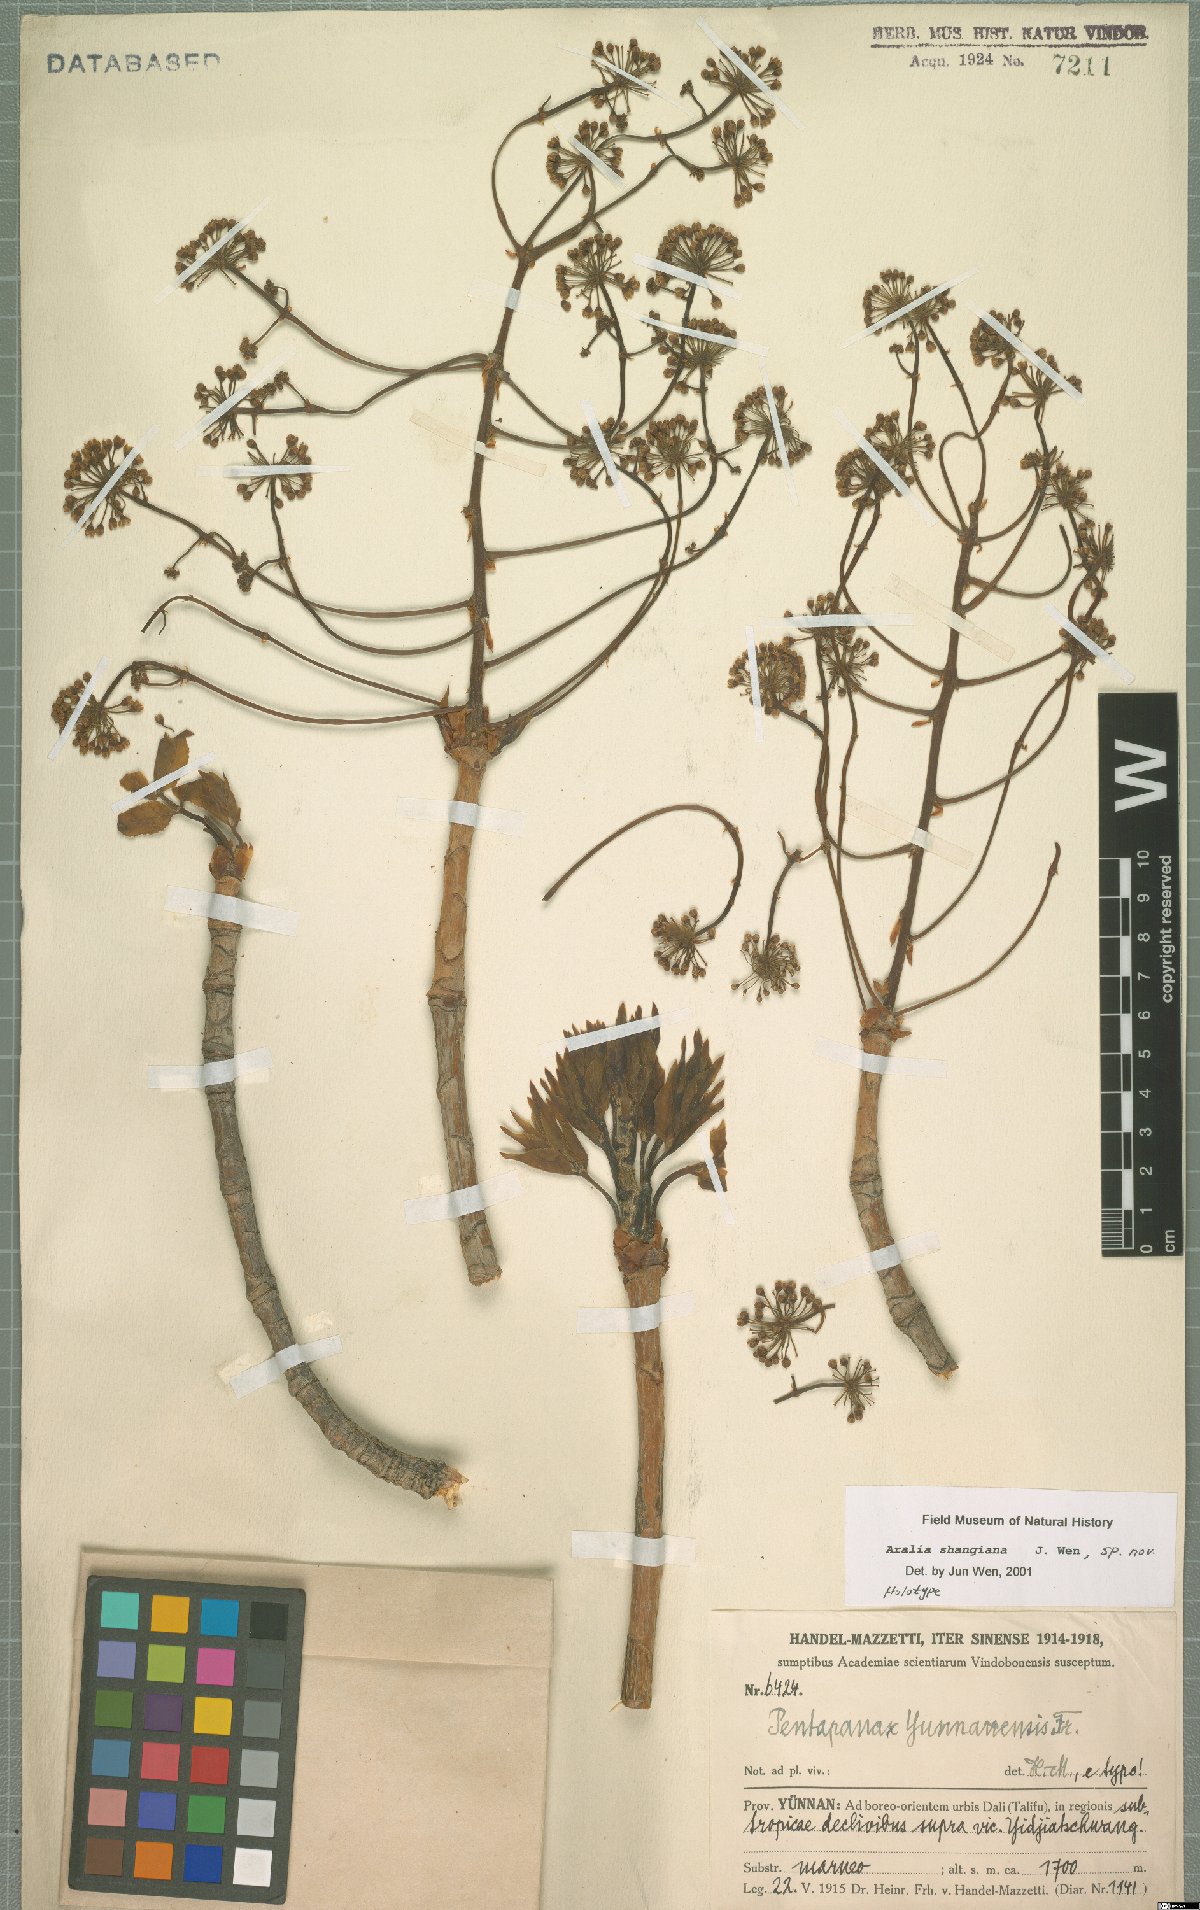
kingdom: Plantae
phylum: Tracheophyta
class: Magnoliopsida
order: Apiales
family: Araliaceae
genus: Aralia
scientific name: Aralia delavayi
